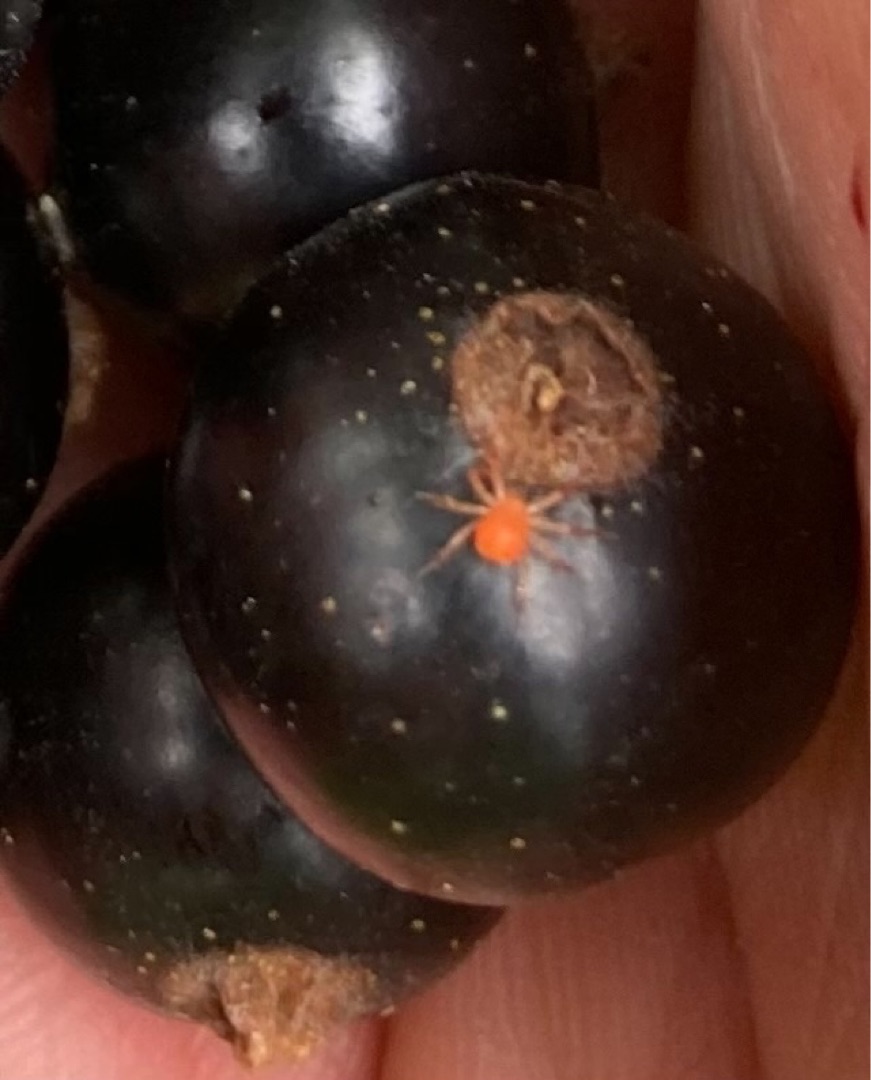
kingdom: Animalia
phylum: Arthropoda
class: Arachnida
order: Trombidiformes
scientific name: Trombidiformes
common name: Fløjlsmider og rovmider
